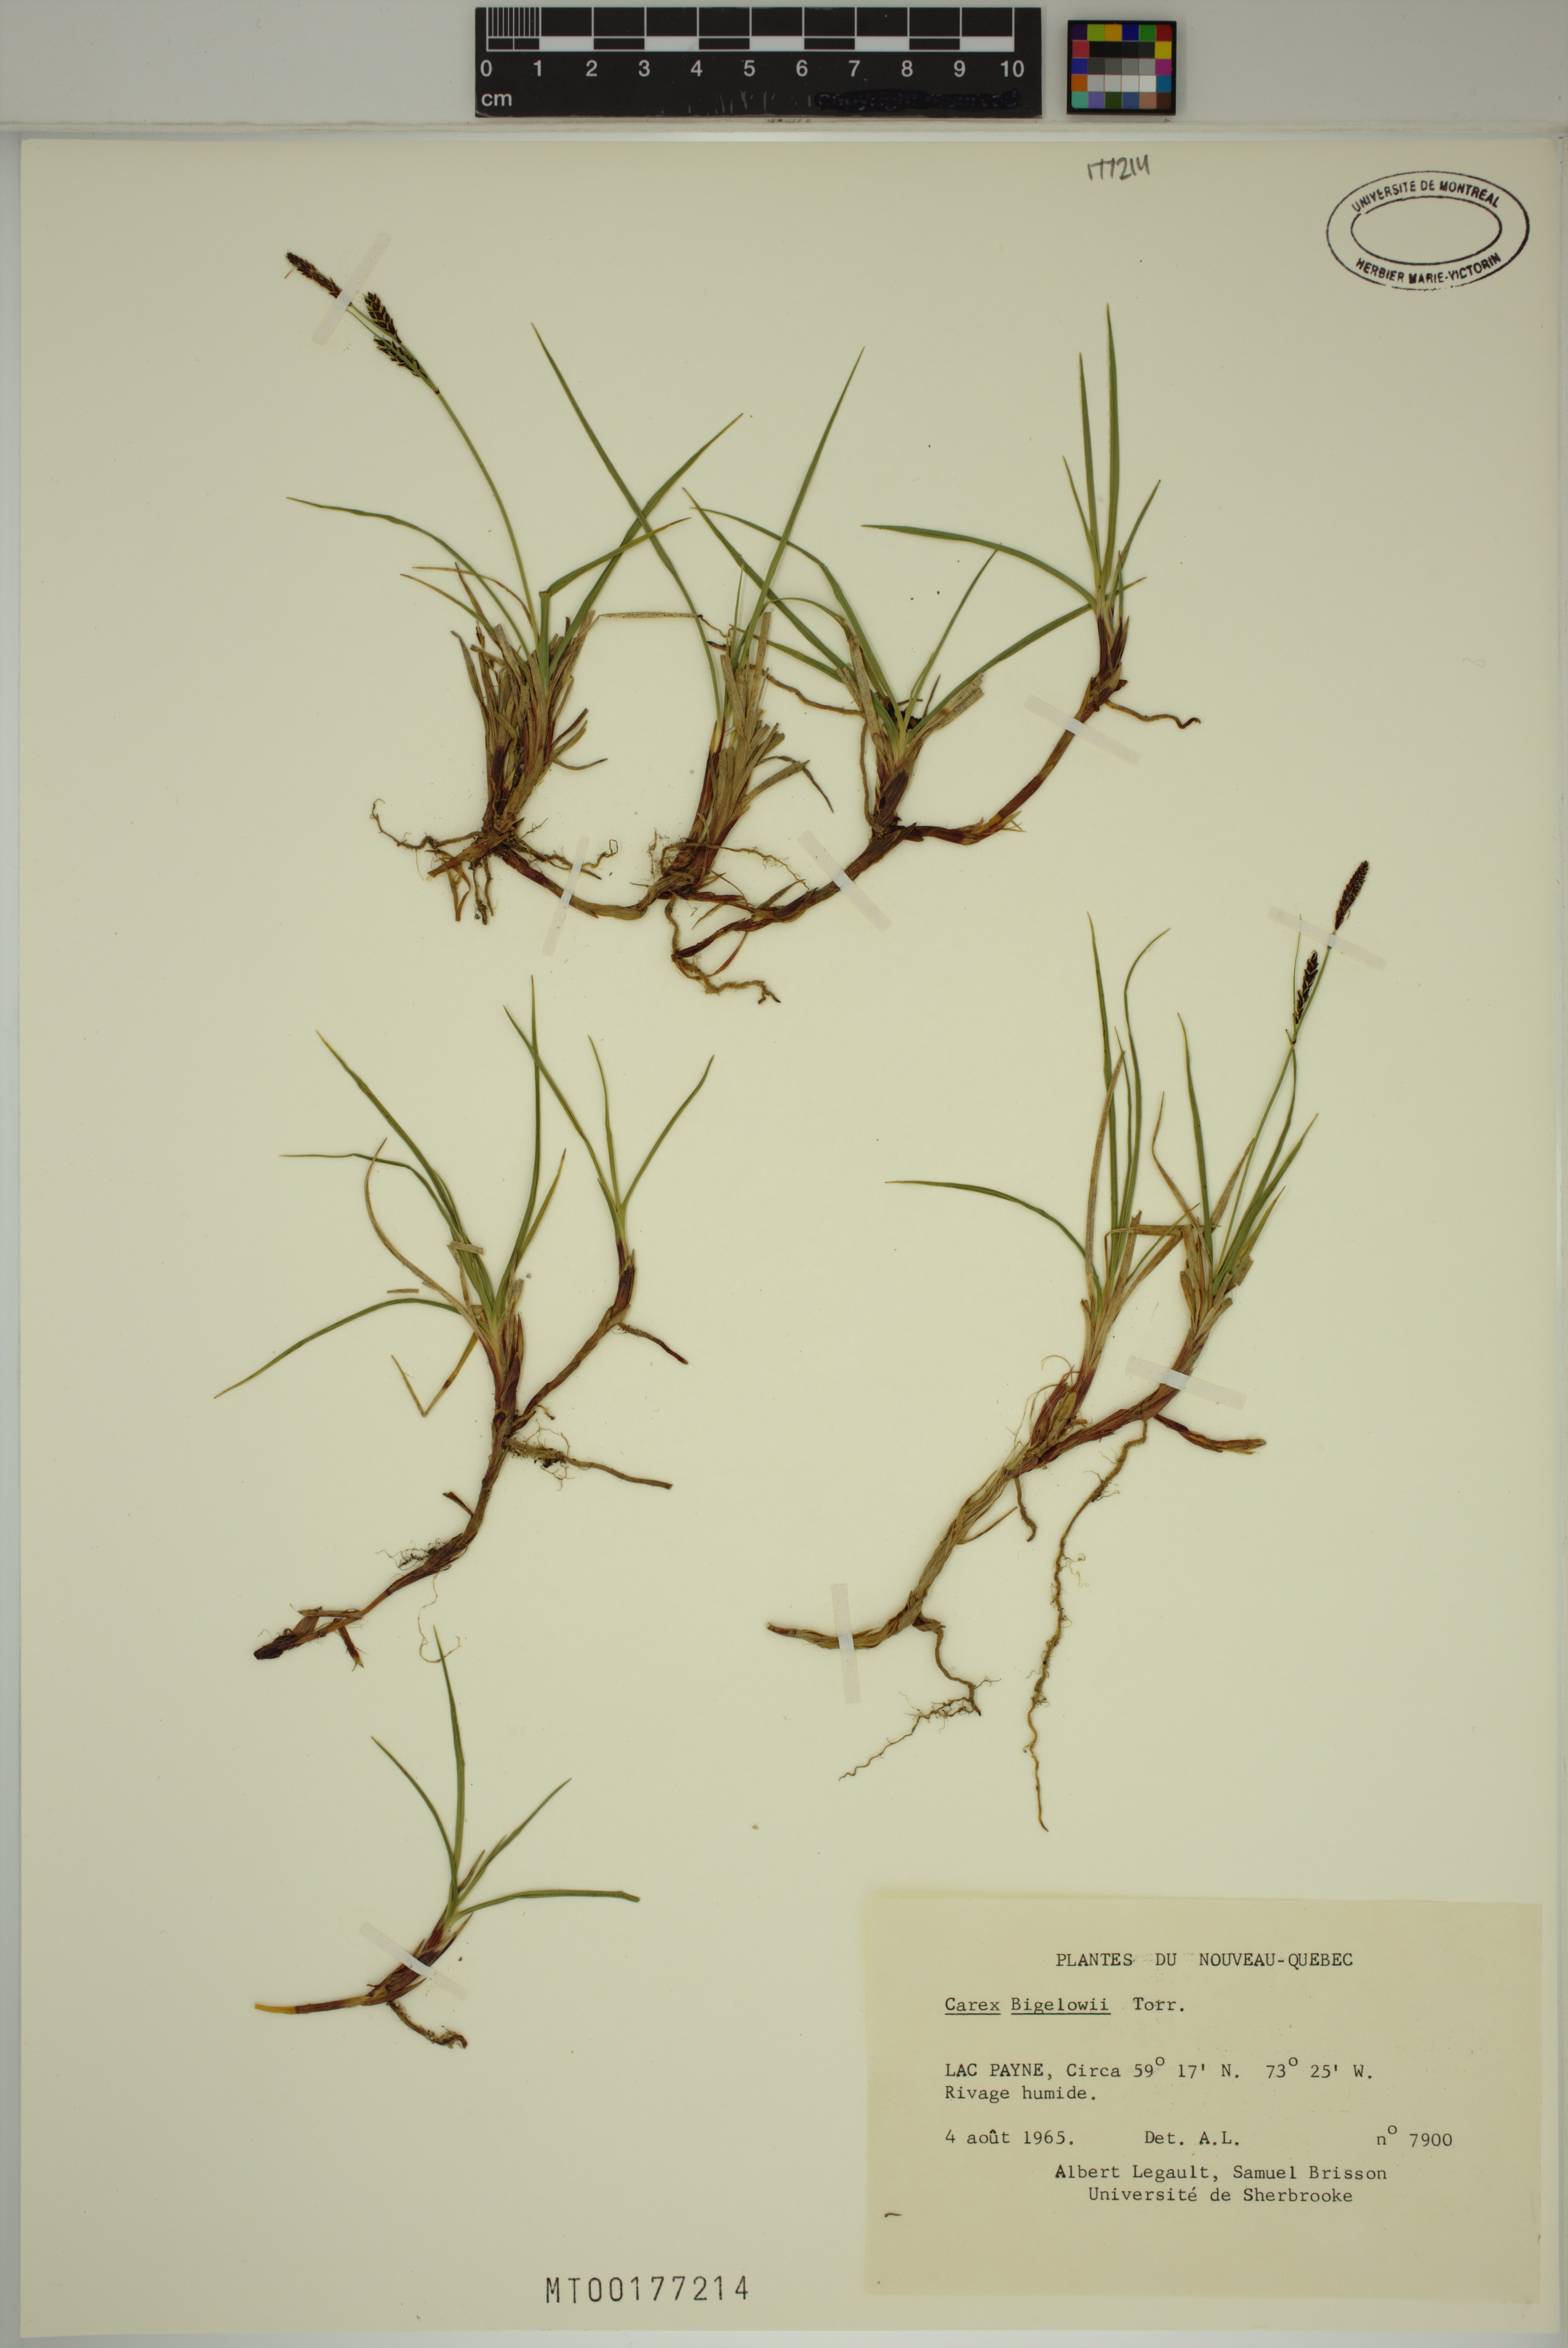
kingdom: Plantae
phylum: Tracheophyta
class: Liliopsida
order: Poales
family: Cyperaceae
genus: Carex
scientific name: Carex bigelowii
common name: Stiff sedge
